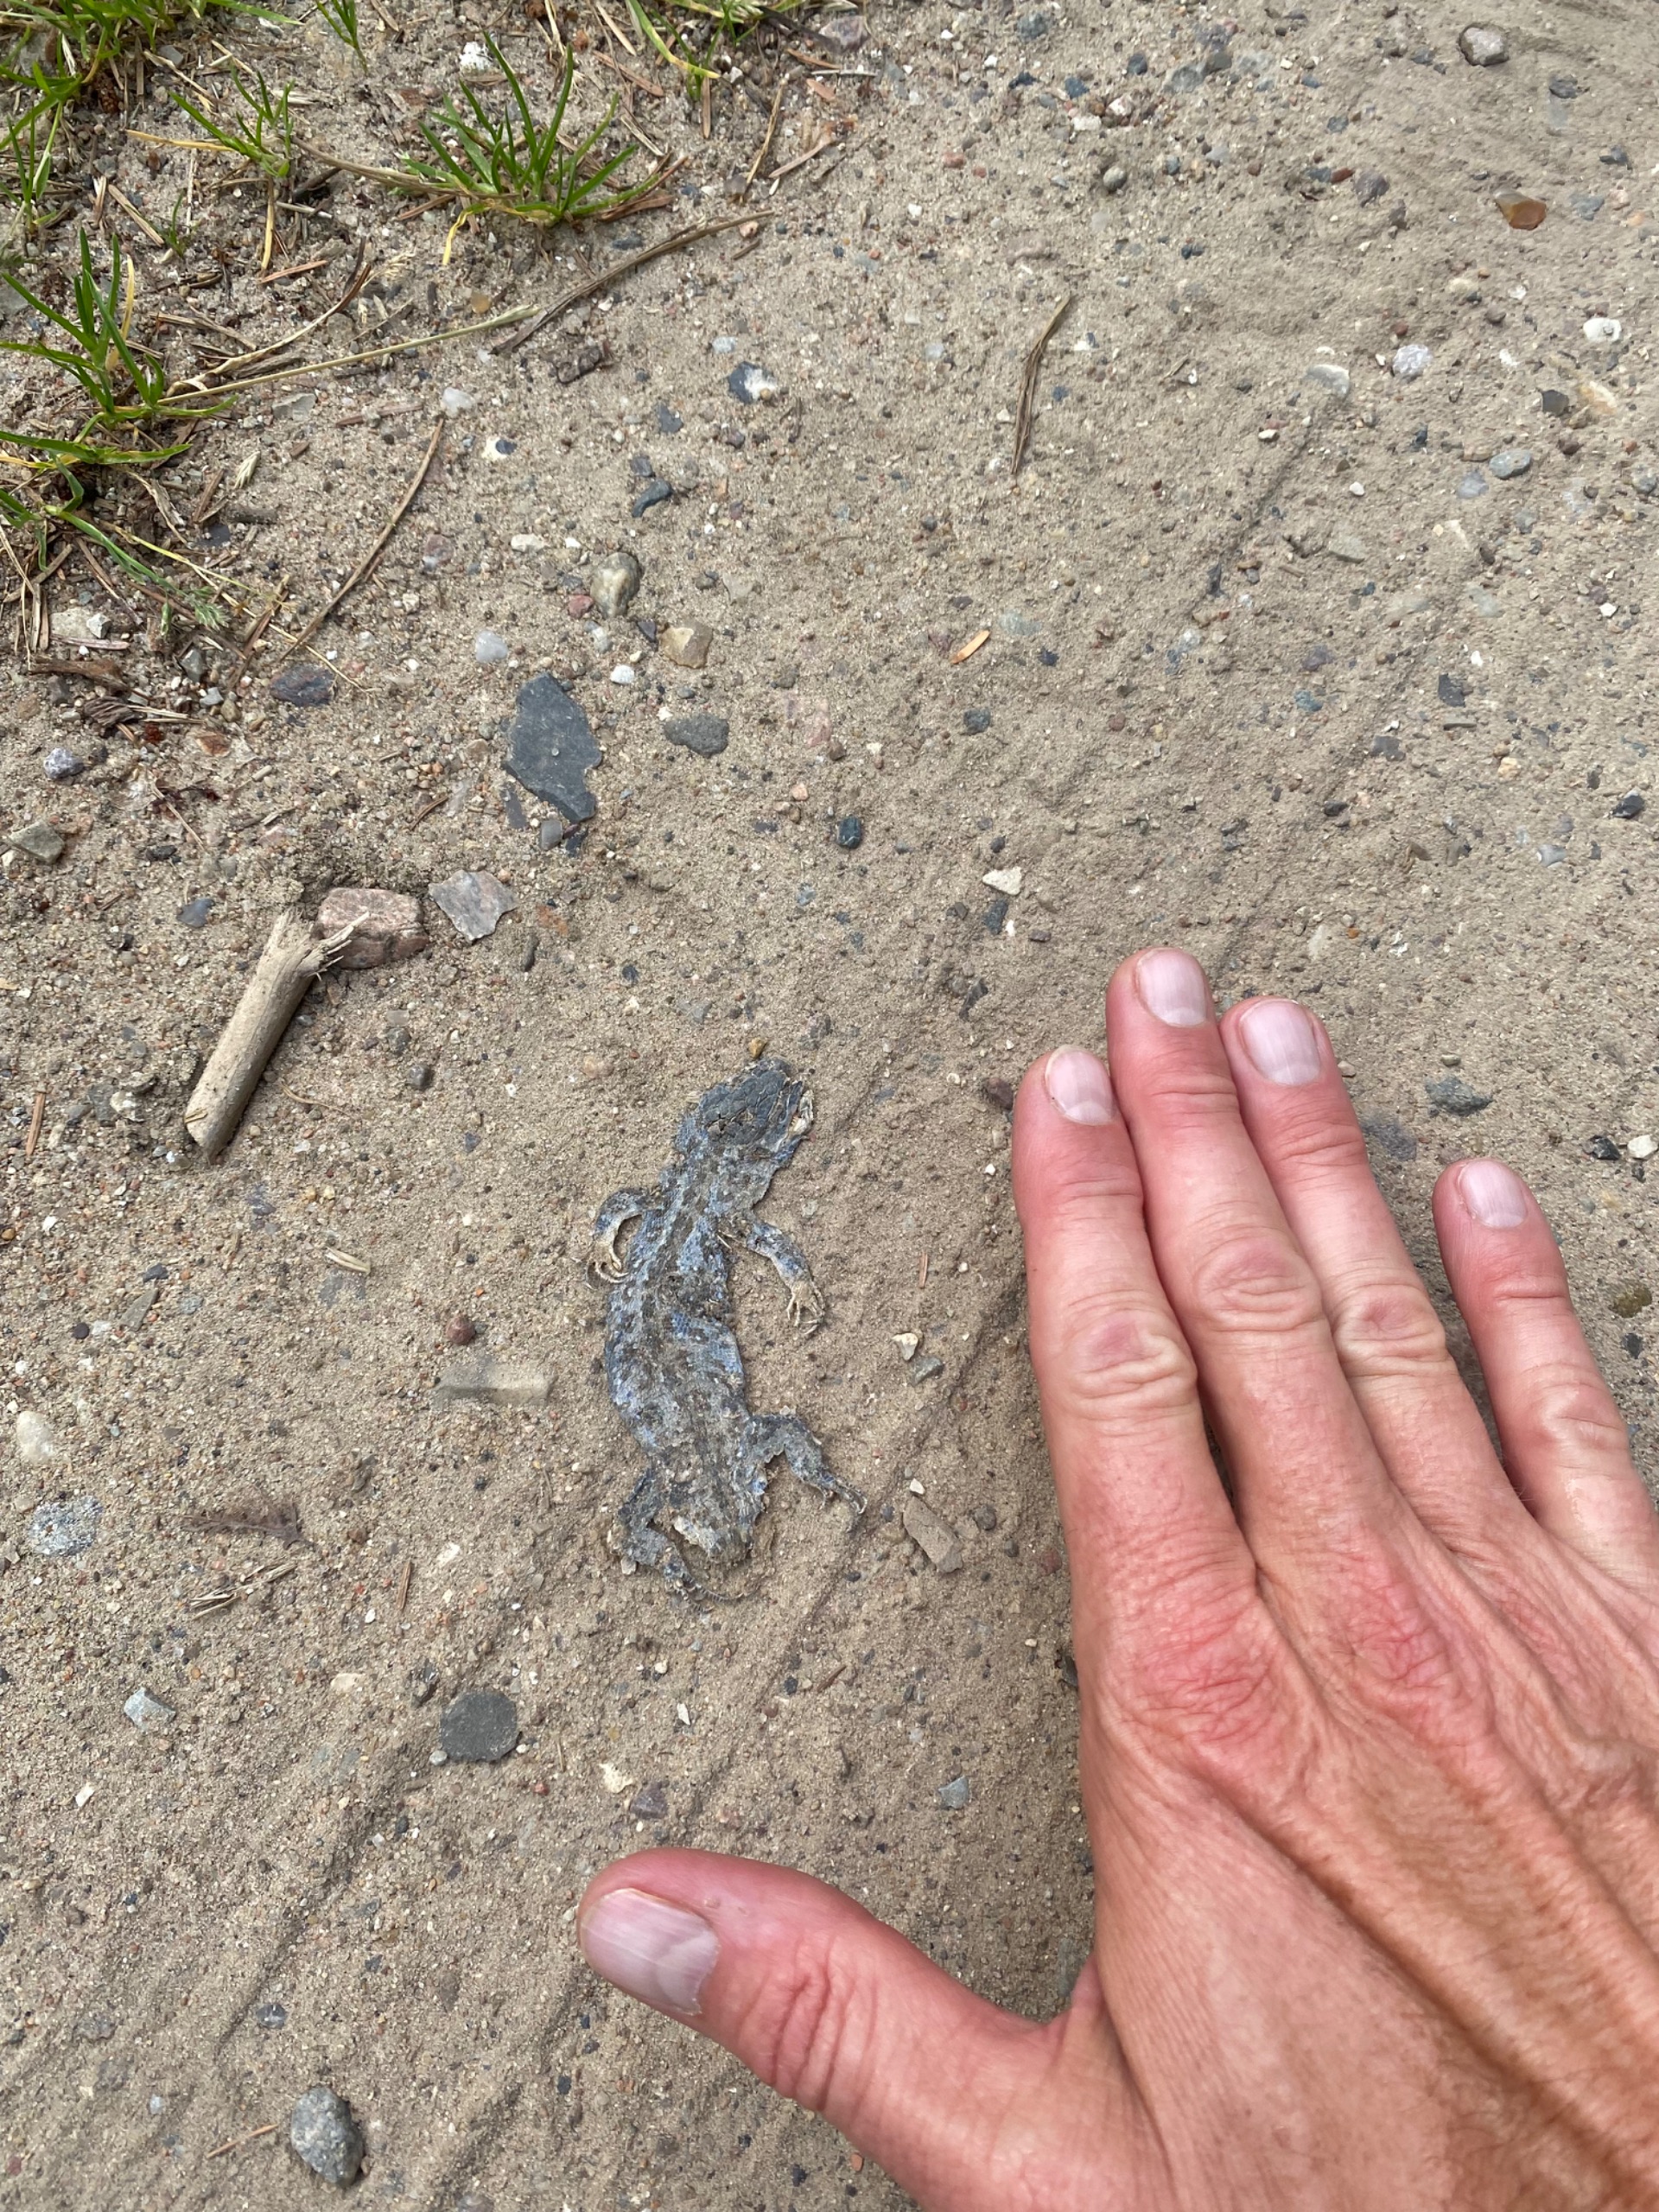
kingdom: Animalia
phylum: Chordata
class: Squamata
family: Lacertidae
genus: Lacerta
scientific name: Lacerta agilis
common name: Markfirben
